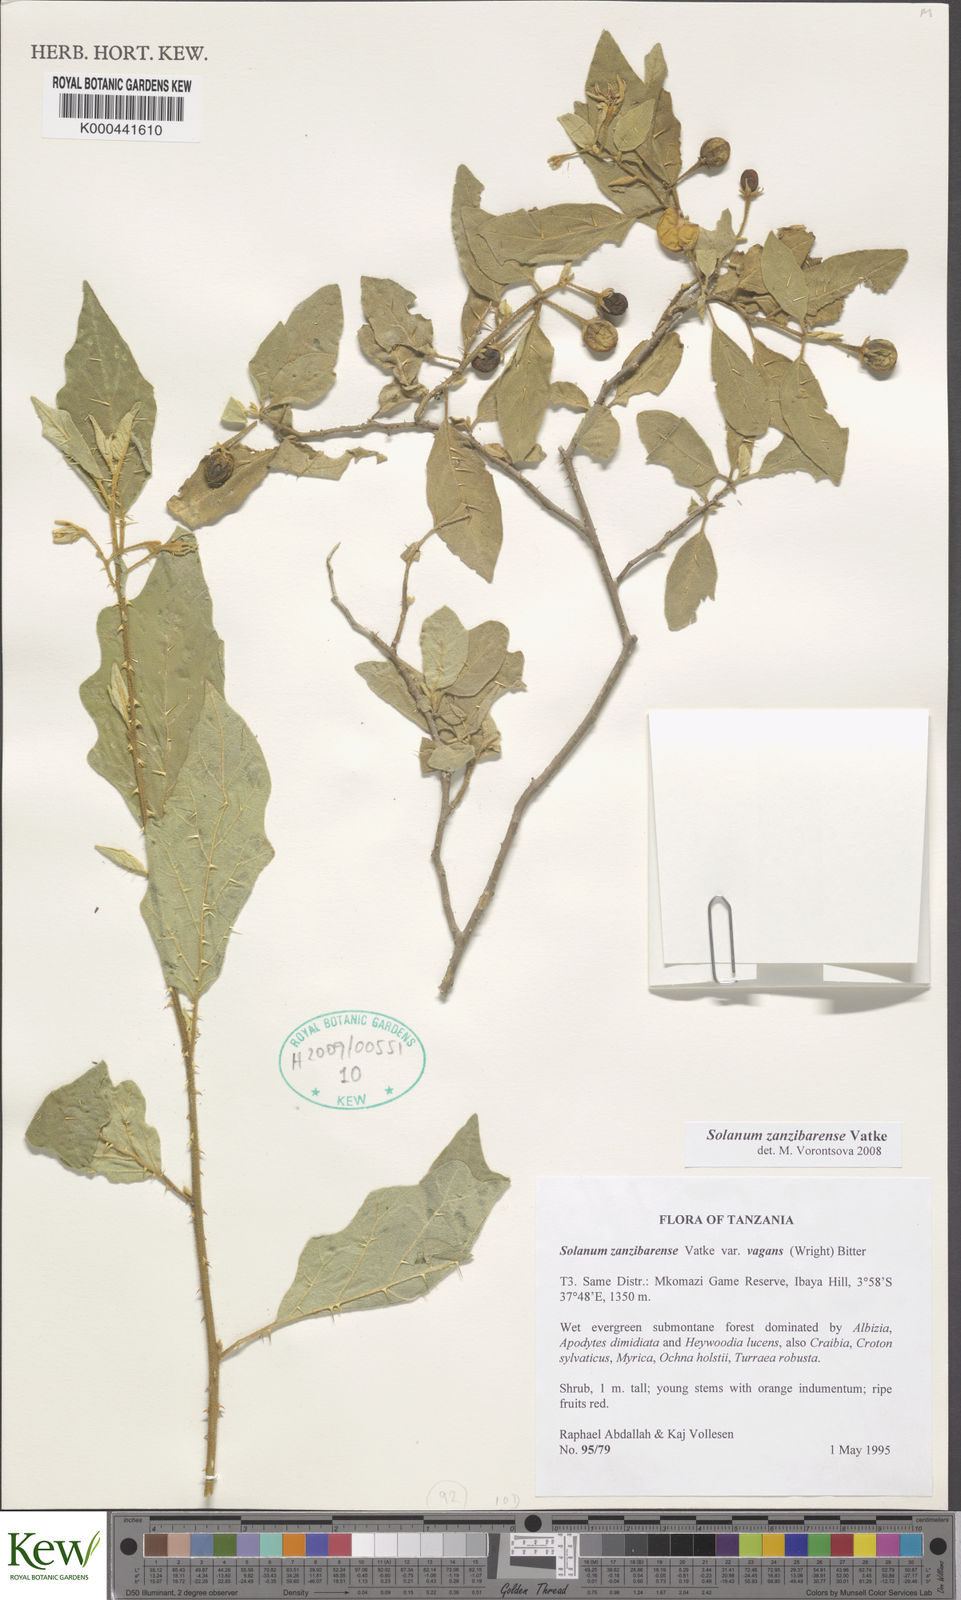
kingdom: Plantae
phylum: Tracheophyta
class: Magnoliopsida
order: Solanales
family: Solanaceae
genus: Solanum
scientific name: Solanum zanzibarense
